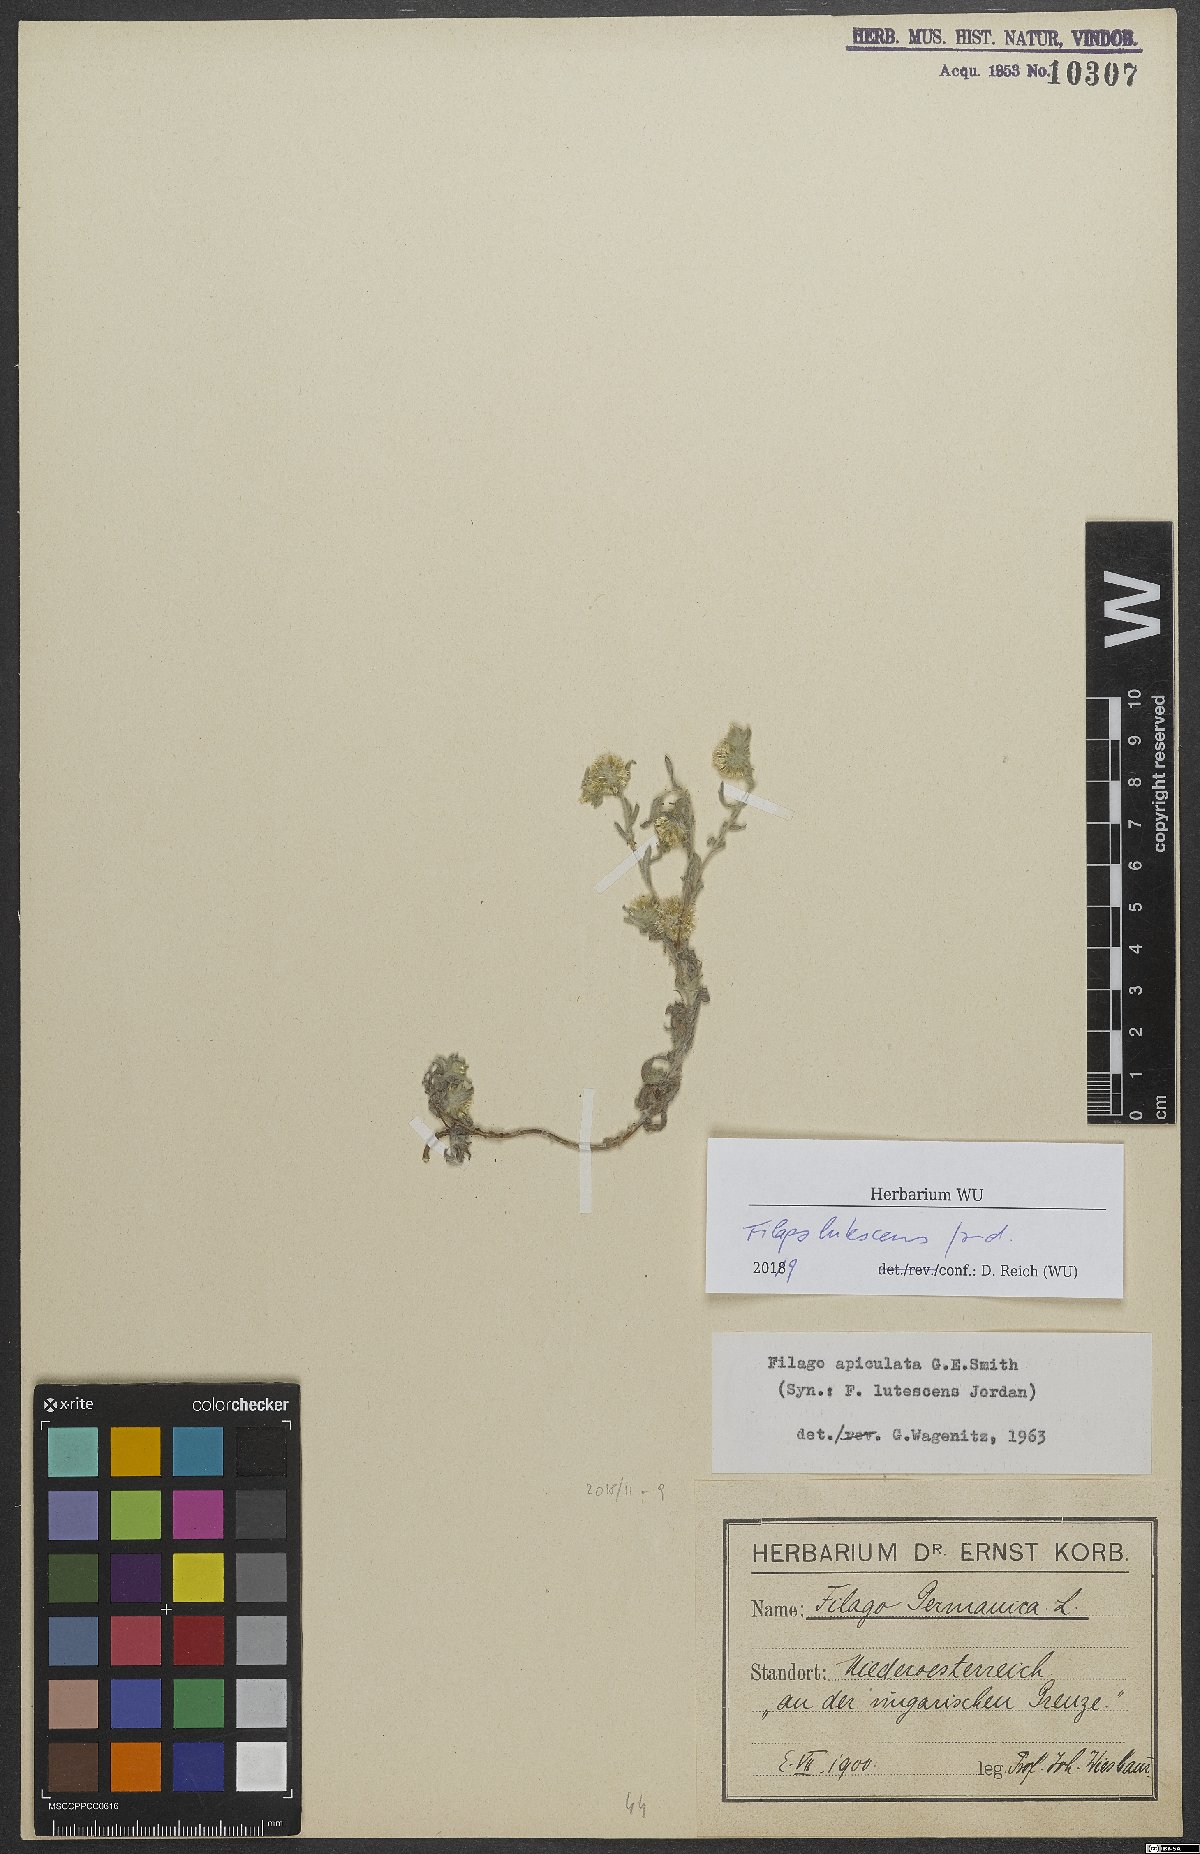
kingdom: Plantae
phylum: Tracheophyta
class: Magnoliopsida
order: Asterales
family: Asteraceae
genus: Filago
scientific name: Filago lutescens
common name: Red-tipped cudweed
